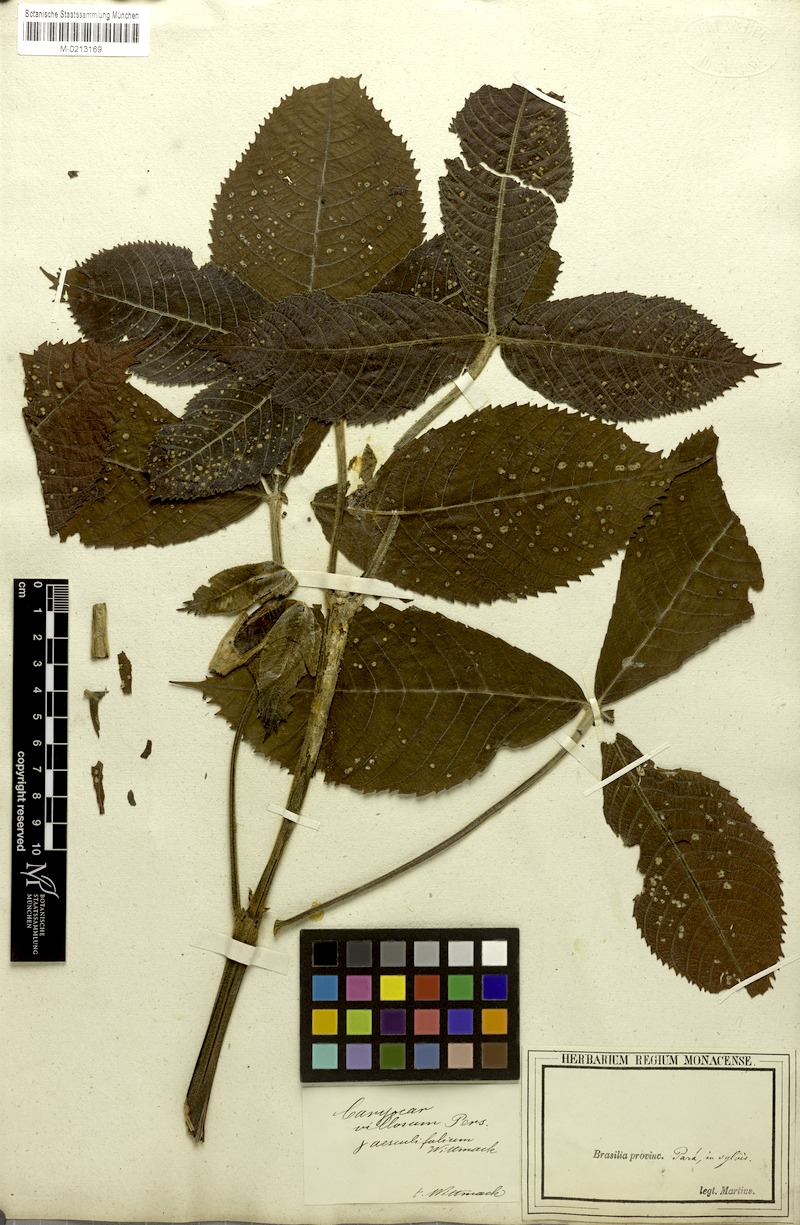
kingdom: Plantae
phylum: Tracheophyta
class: Magnoliopsida
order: Malpighiales
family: Caryocaraceae
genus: Caryocar
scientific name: Caryocar villosum
